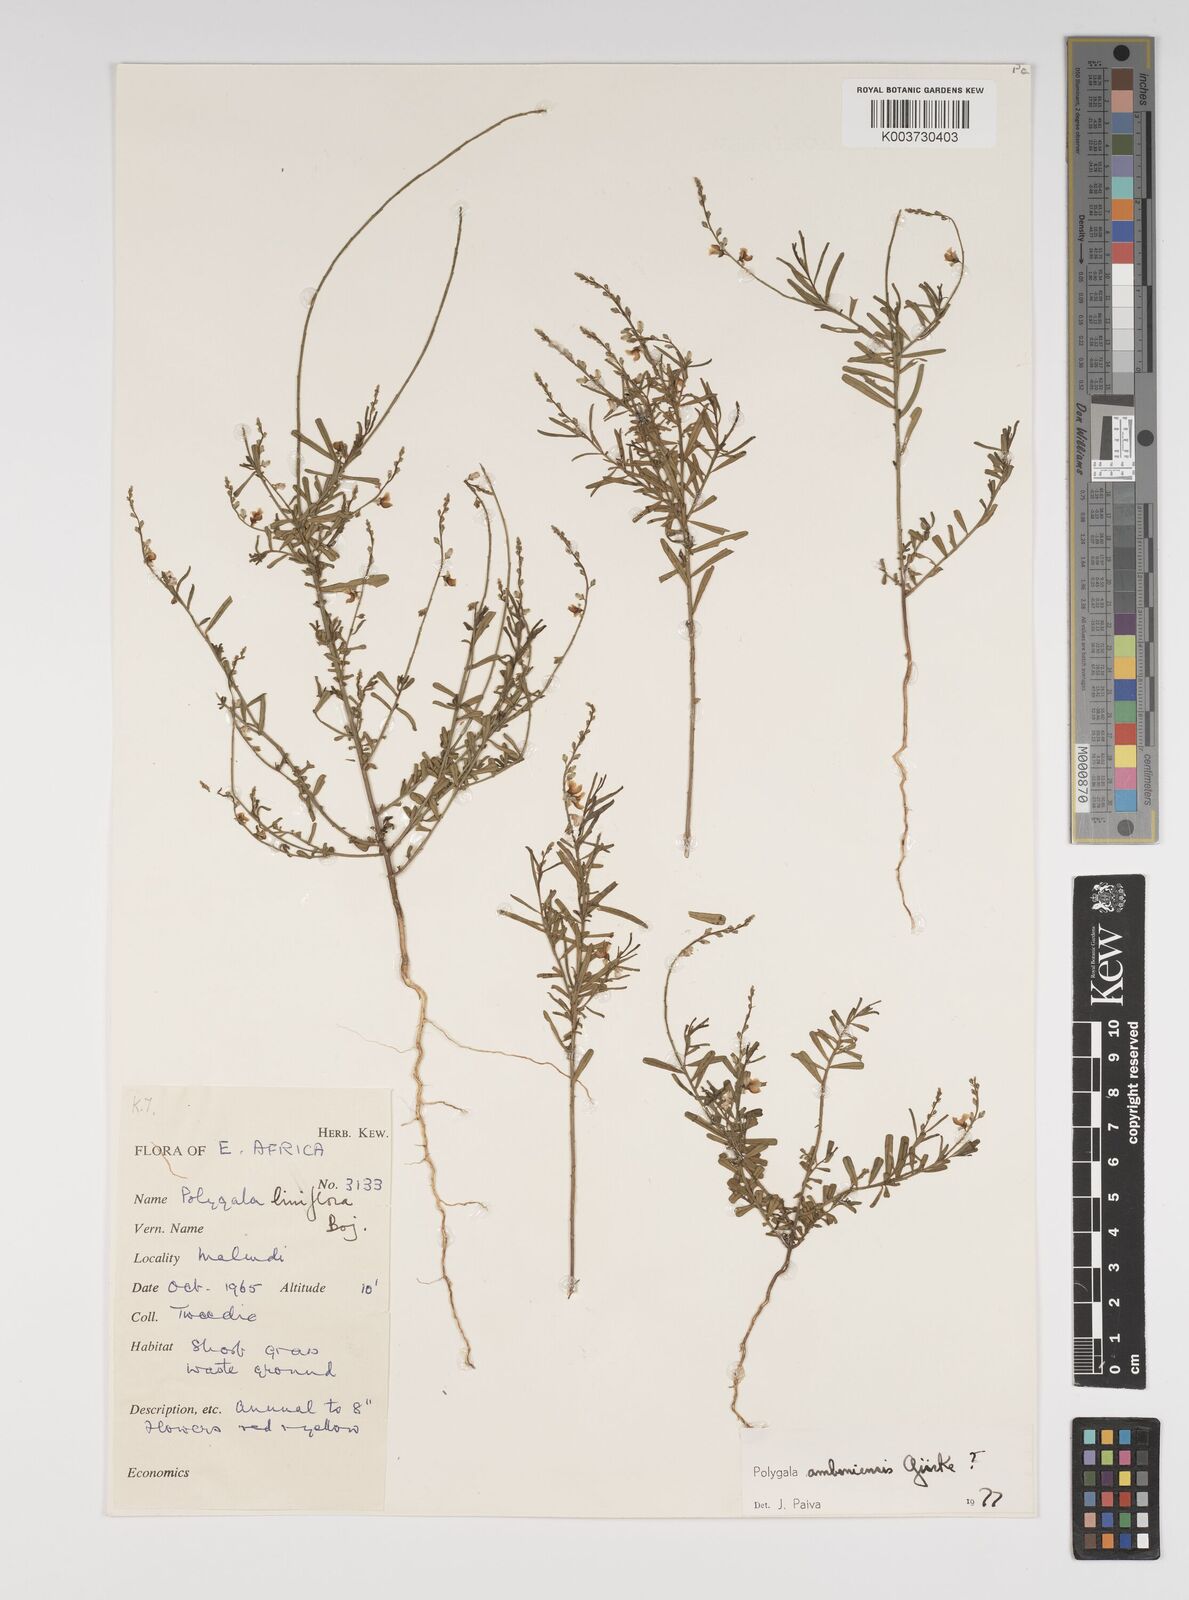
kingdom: Plantae
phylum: Tracheophyta
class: Magnoliopsida
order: Fabales
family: Polygalaceae
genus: Polygala
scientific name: Polygala amboniensis
